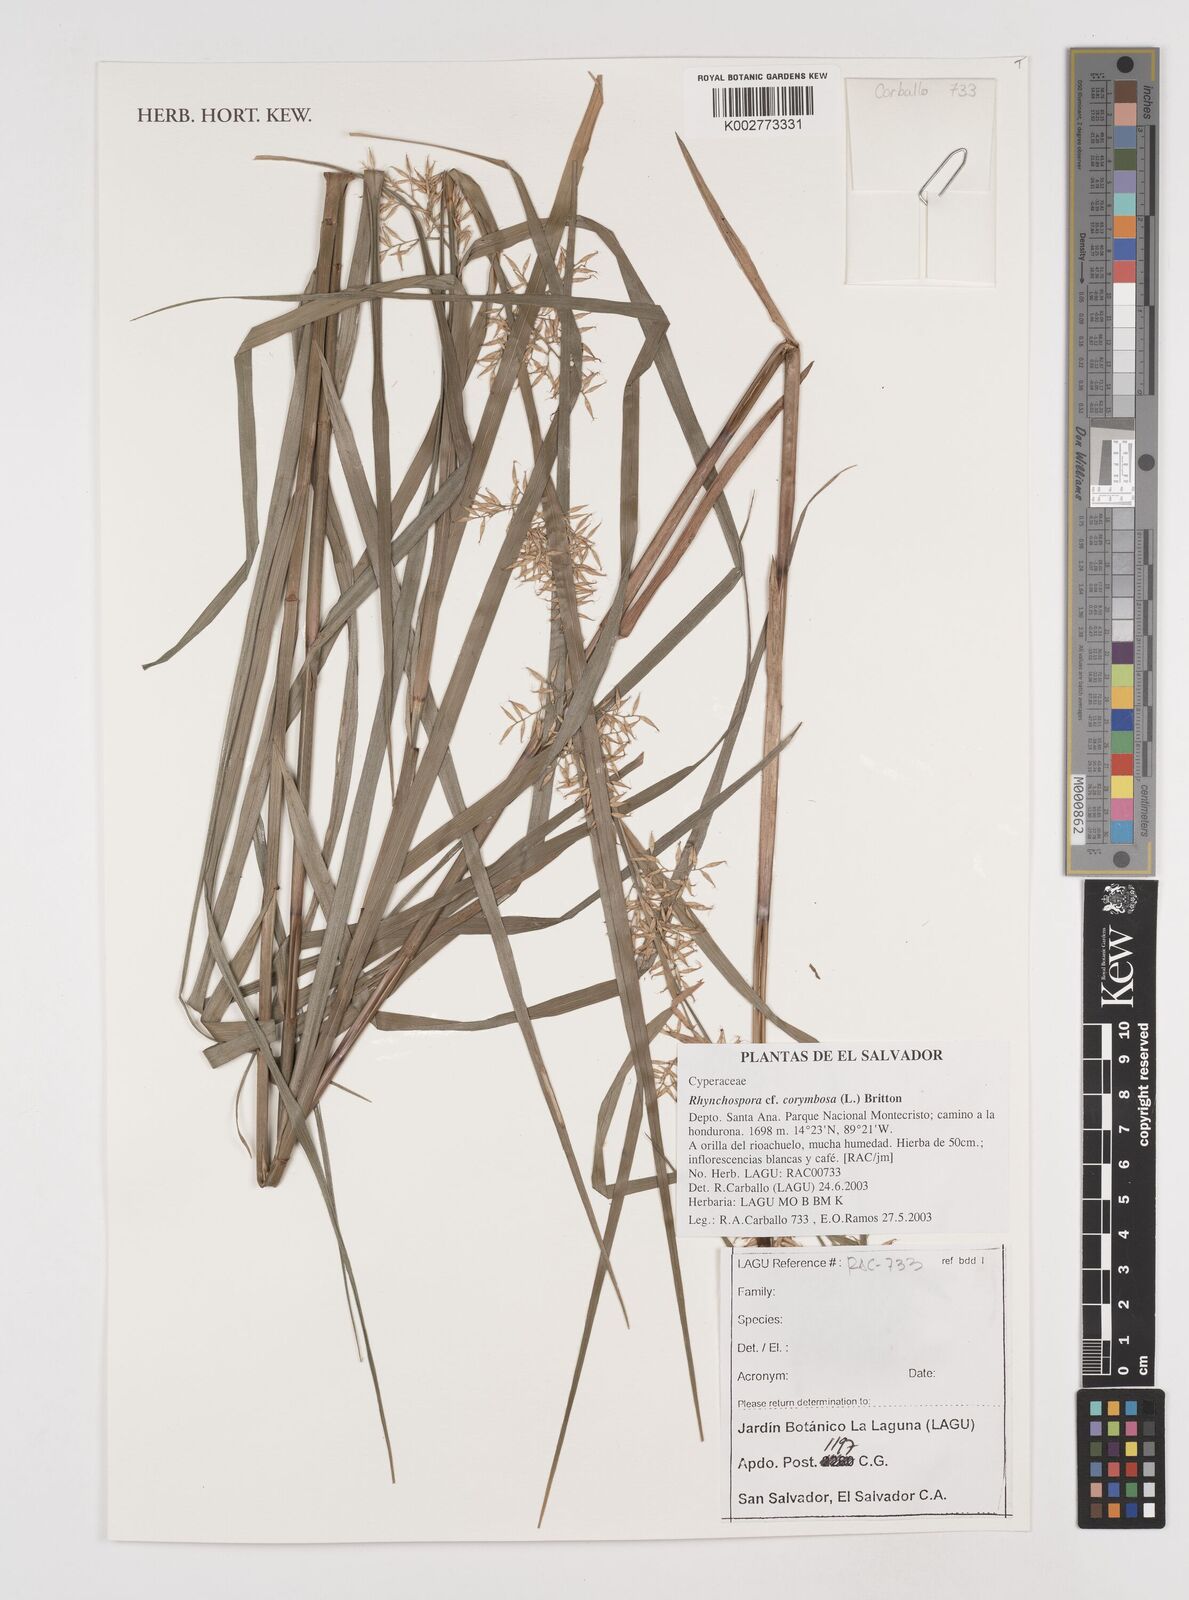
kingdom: Plantae
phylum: Tracheophyta
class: Liliopsida
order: Poales
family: Cyperaceae
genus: Rhynchospora
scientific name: Rhynchospora corymbosa
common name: Golden beak sedge
